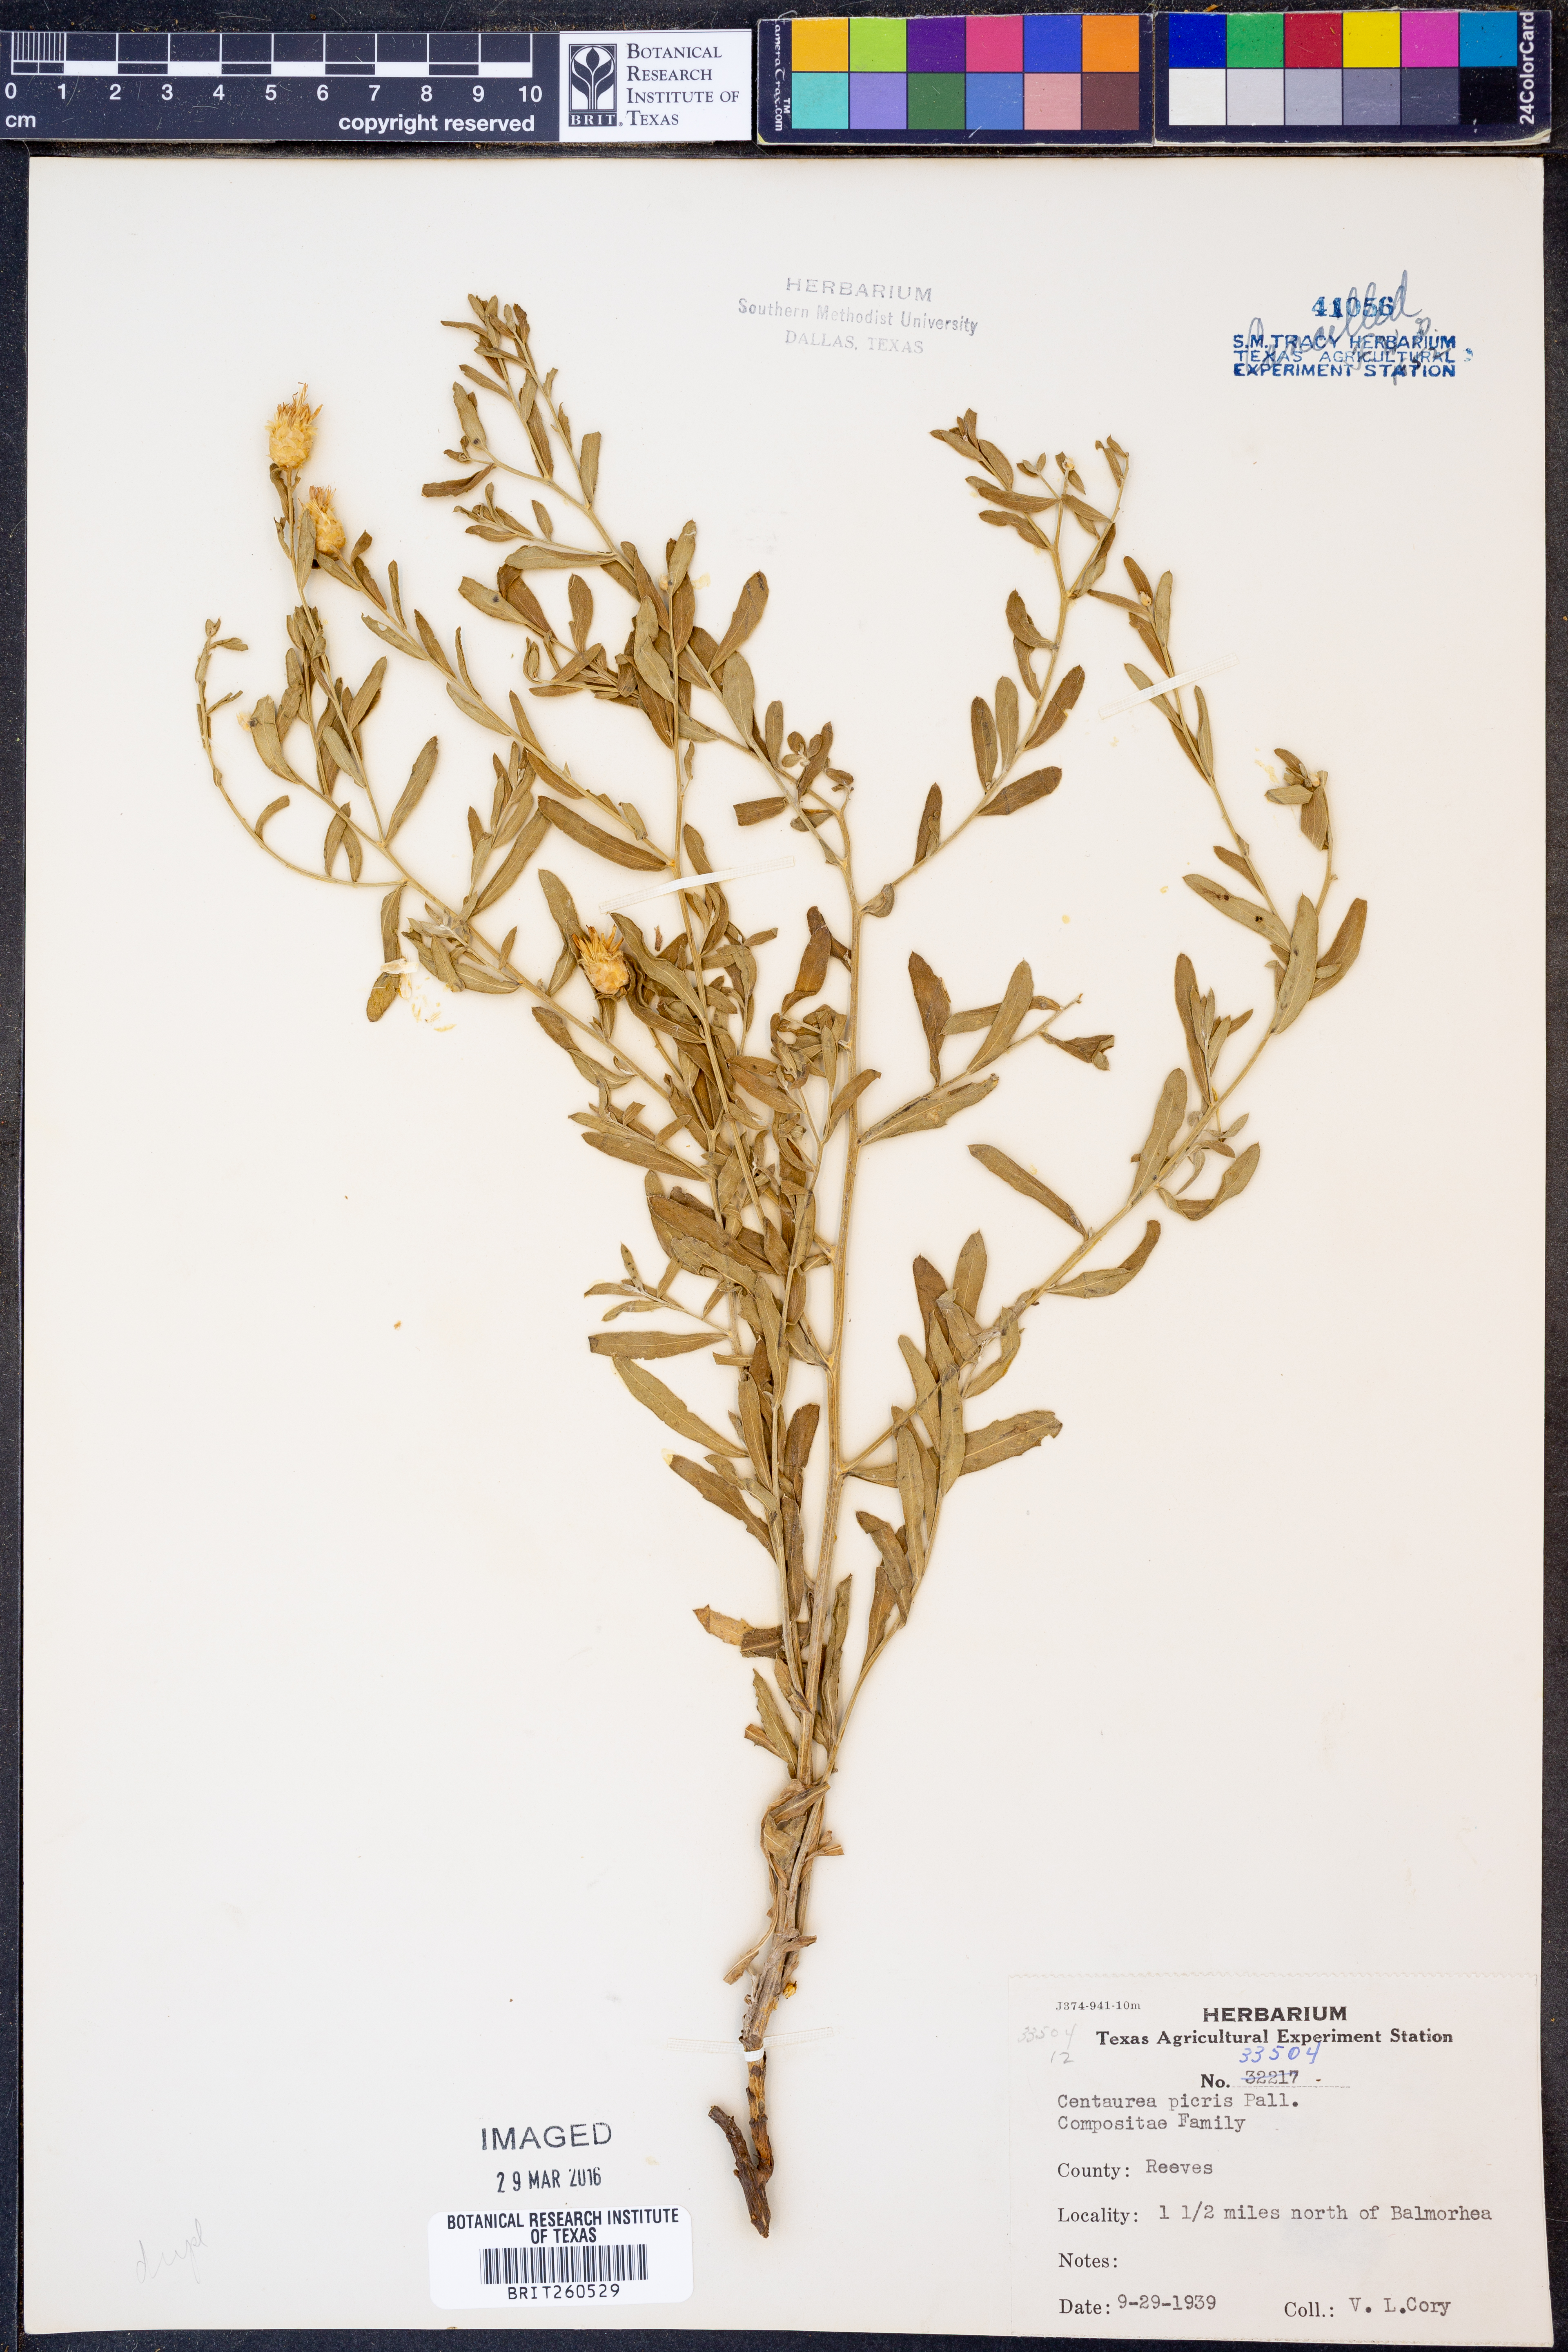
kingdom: Plantae
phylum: Tracheophyta
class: Magnoliopsida
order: Asterales
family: Asteraceae
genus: Leuzea
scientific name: Leuzea repens
